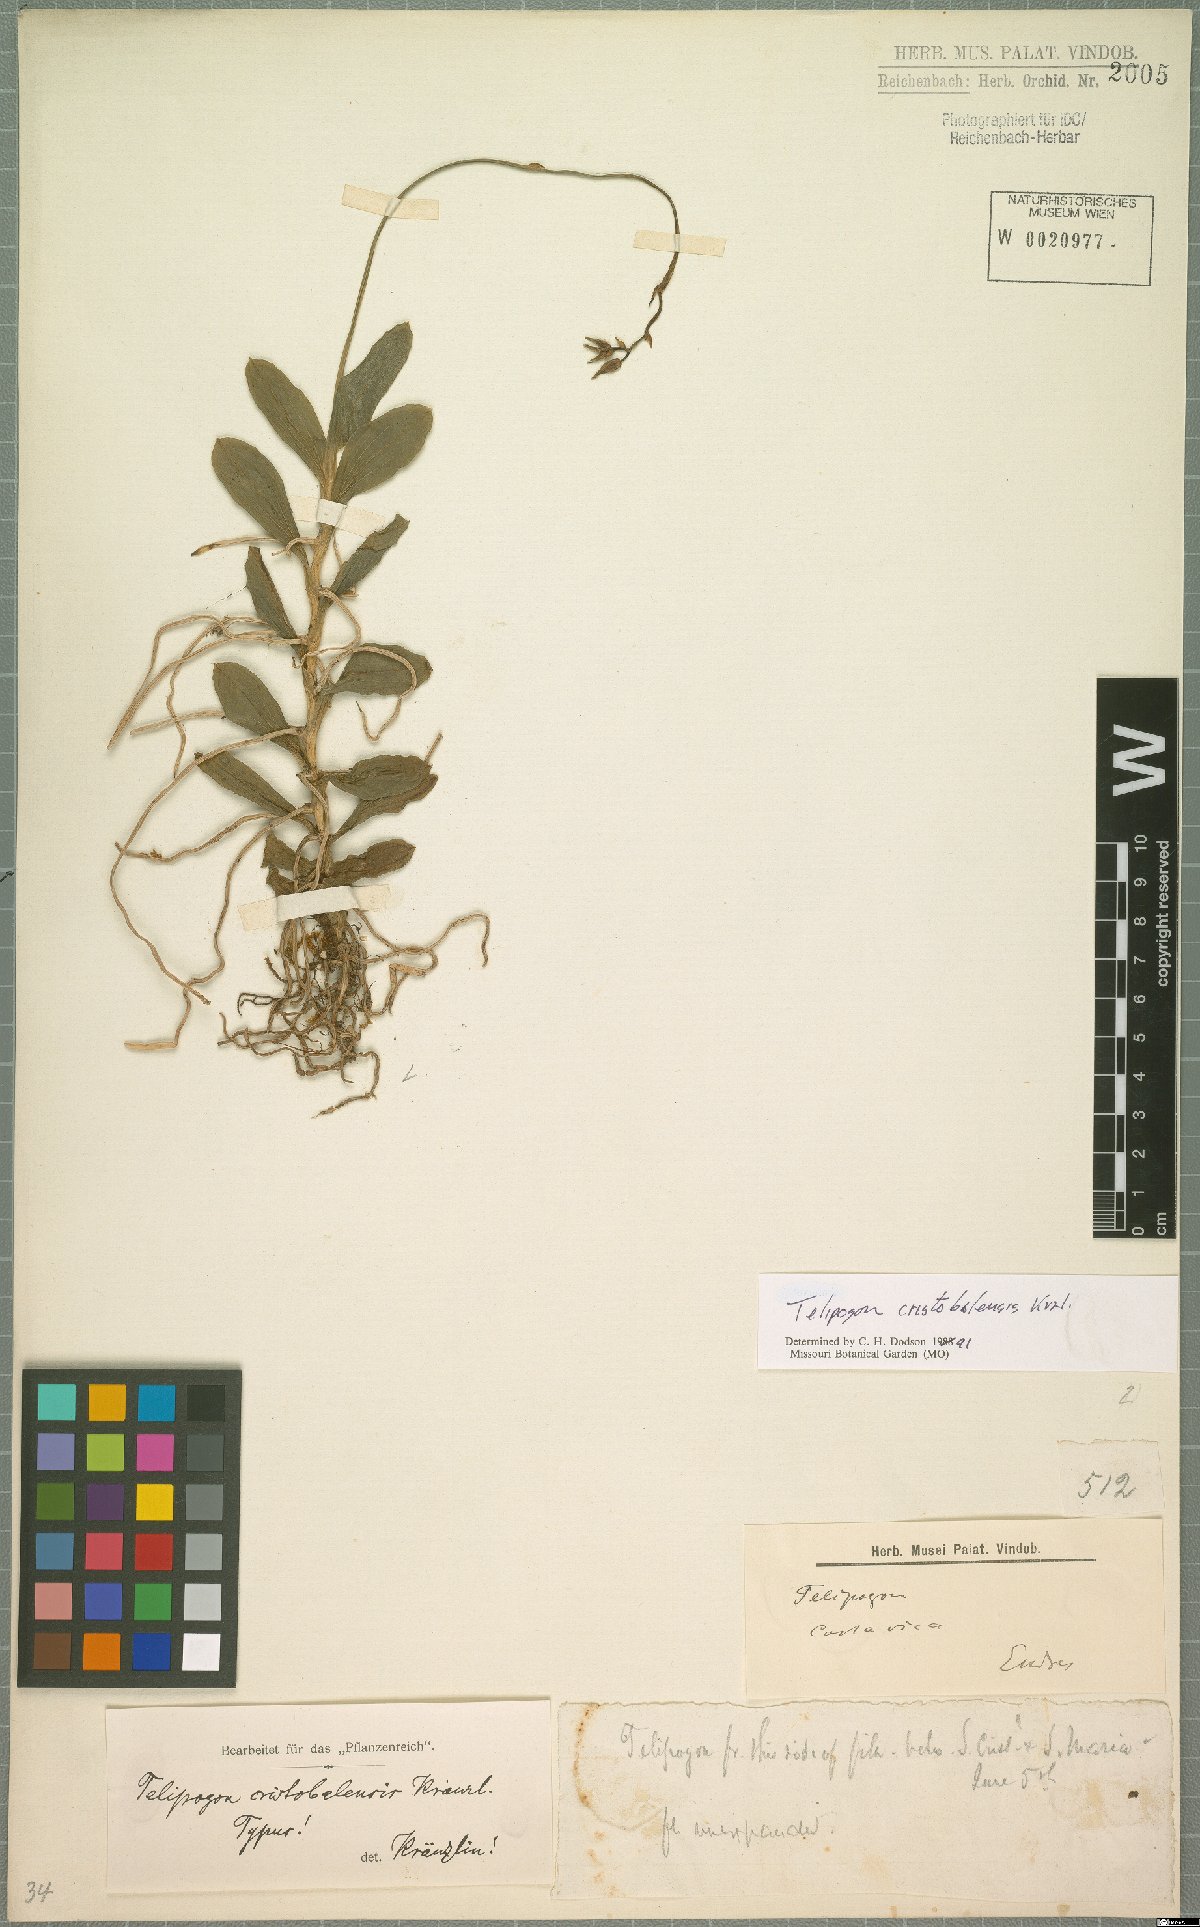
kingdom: Plantae
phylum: Tracheophyta
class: Liliopsida
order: Asparagales
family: Orchidaceae
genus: Telipogon
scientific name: Telipogon christobalensis
